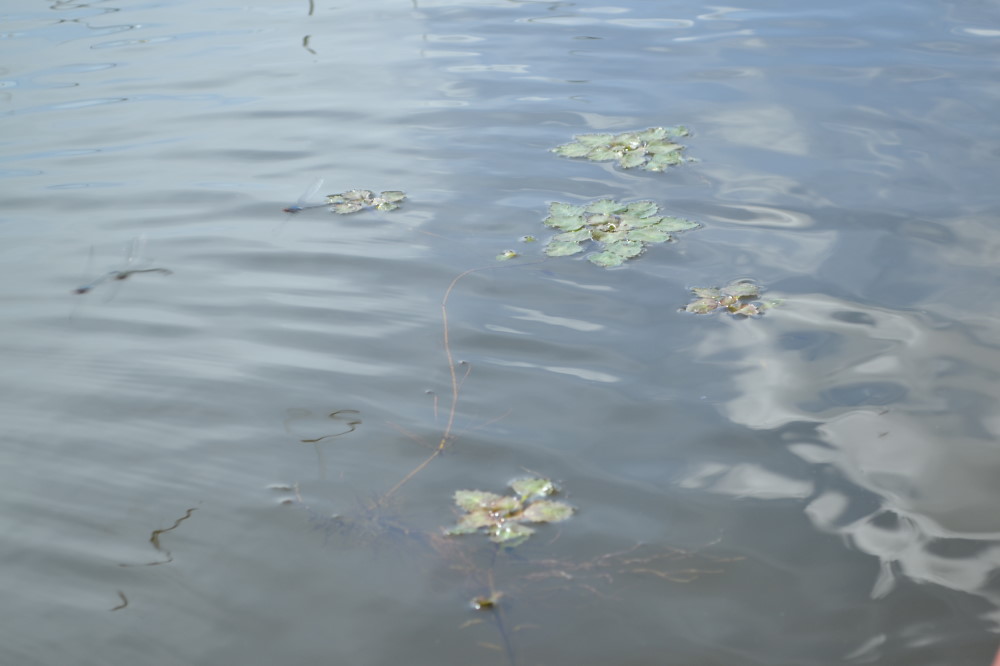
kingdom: Plantae
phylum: Tracheophyta
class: Magnoliopsida
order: Myrtales
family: Lythraceae
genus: Trapa
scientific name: Trapa natans
